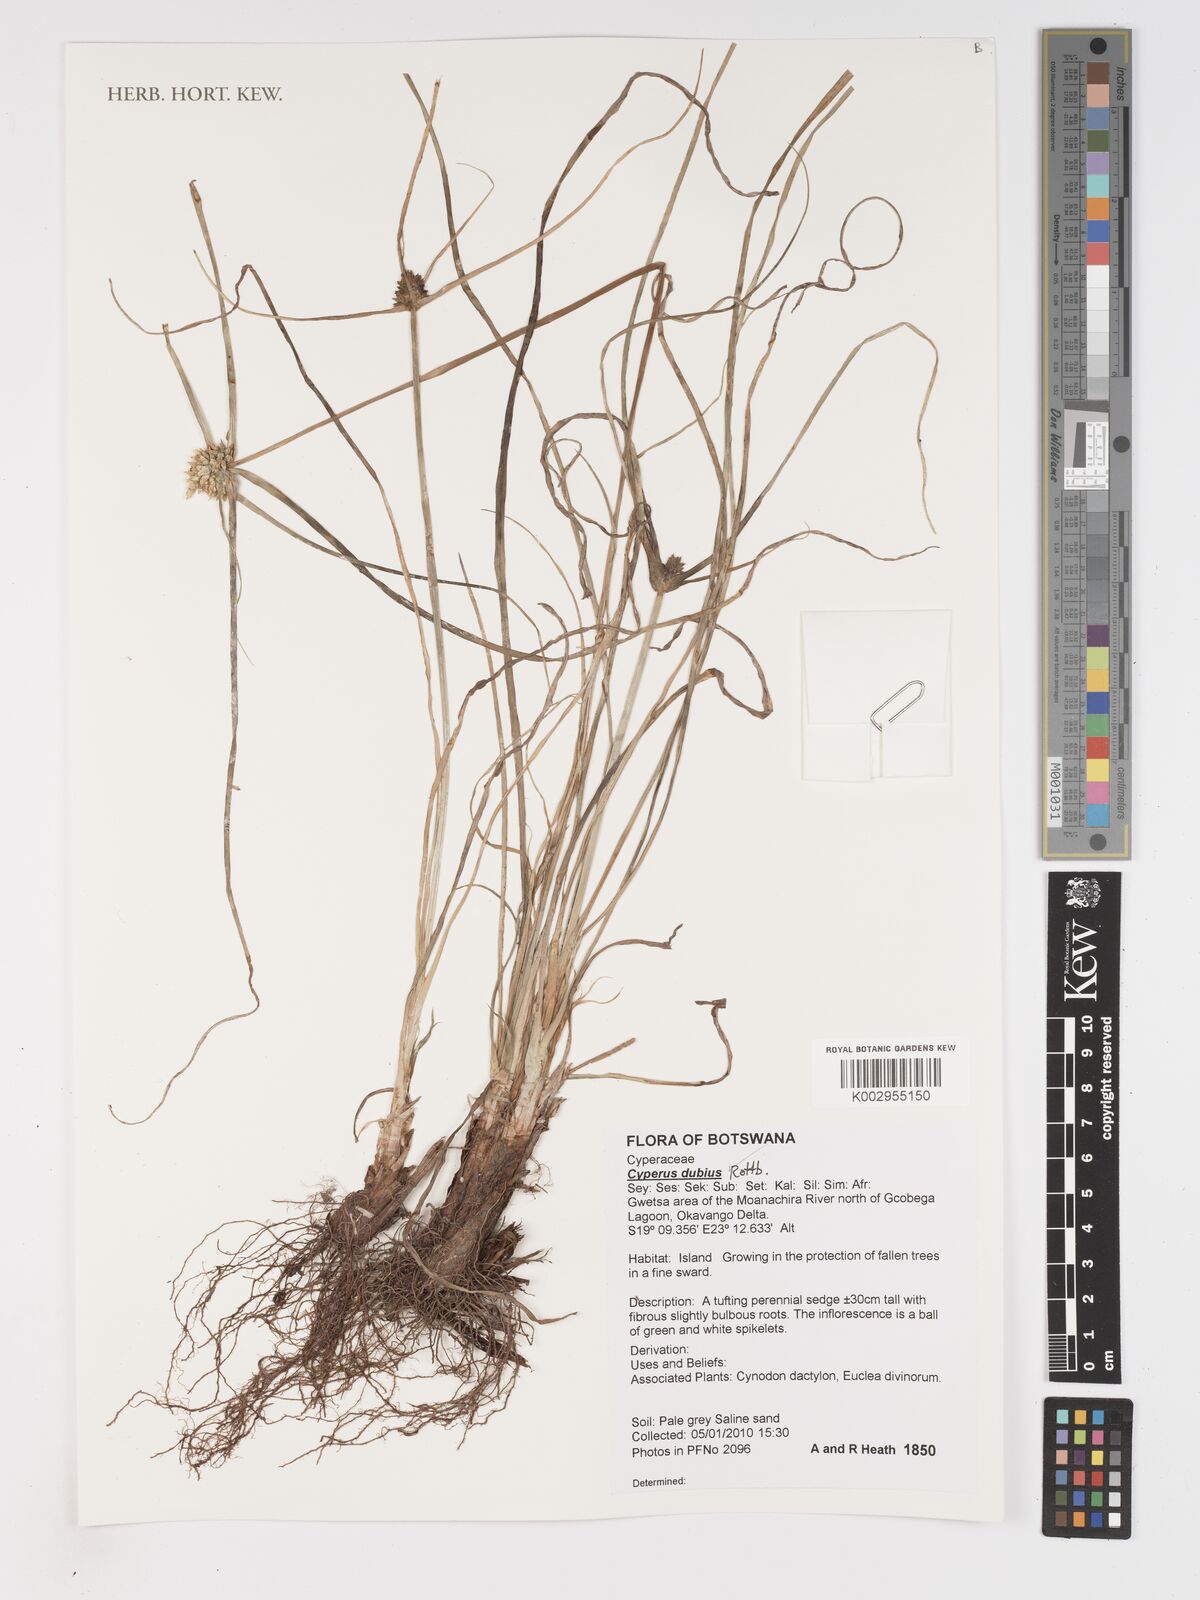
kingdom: Plantae
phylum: Tracheophyta
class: Liliopsida
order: Poales
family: Cyperaceae
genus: Cyperus
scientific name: Cyperus dubius
